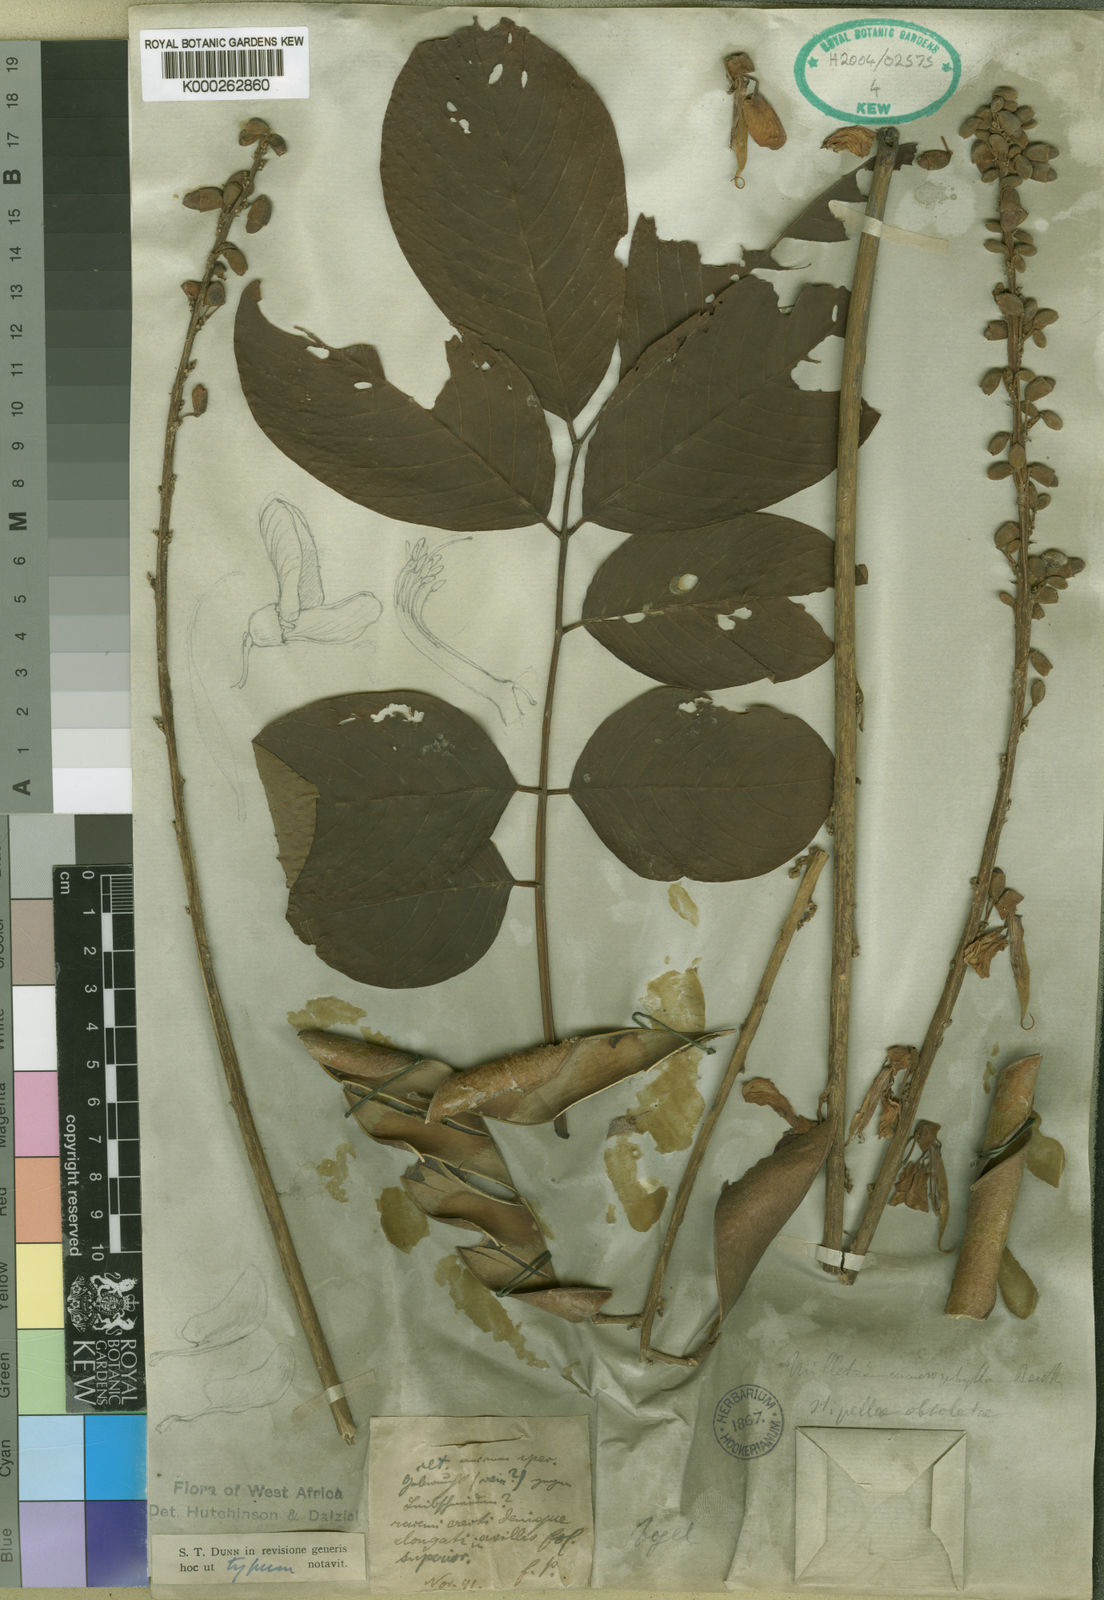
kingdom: Plantae
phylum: Tracheophyta
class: Magnoliopsida
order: Fabales
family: Fabaceae
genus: Millettia
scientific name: Millettia macrophylla
